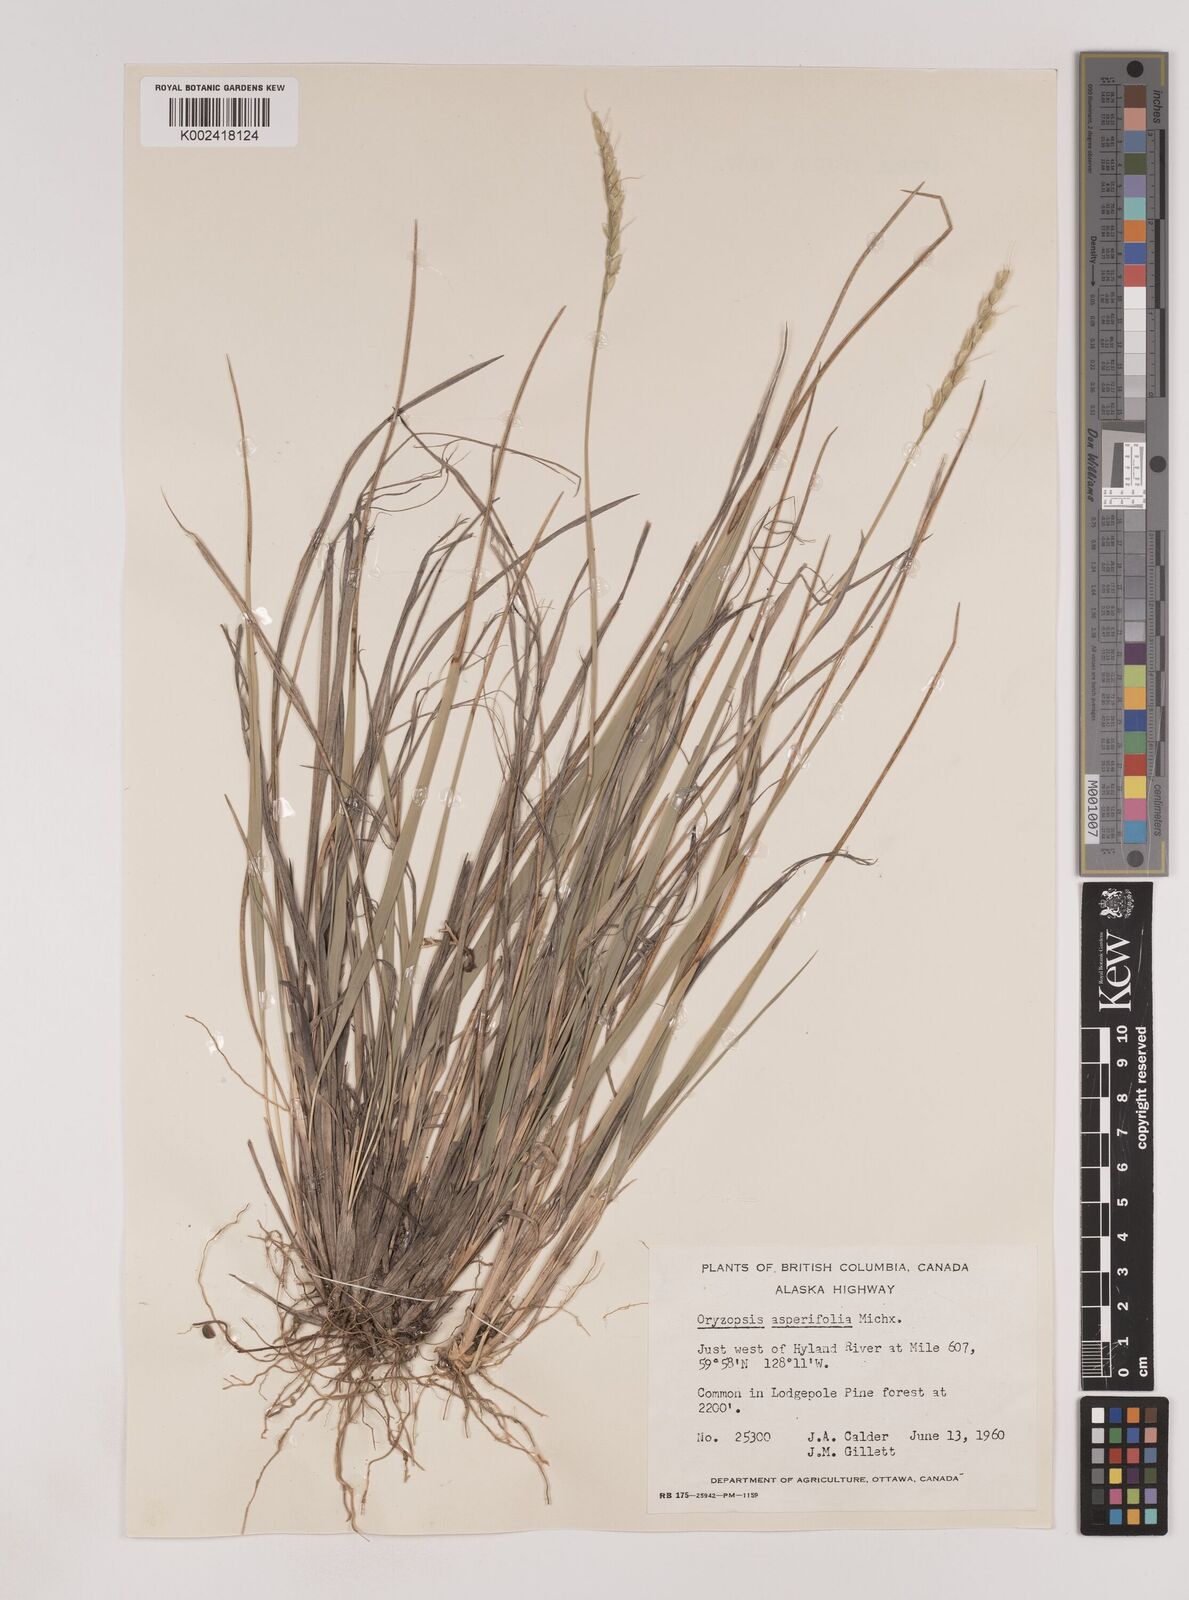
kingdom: Plantae
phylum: Tracheophyta
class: Liliopsida
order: Poales
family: Poaceae
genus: Oryzopsis
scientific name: Oryzopsis asperifolia
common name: Rough-leaved mountain rice
